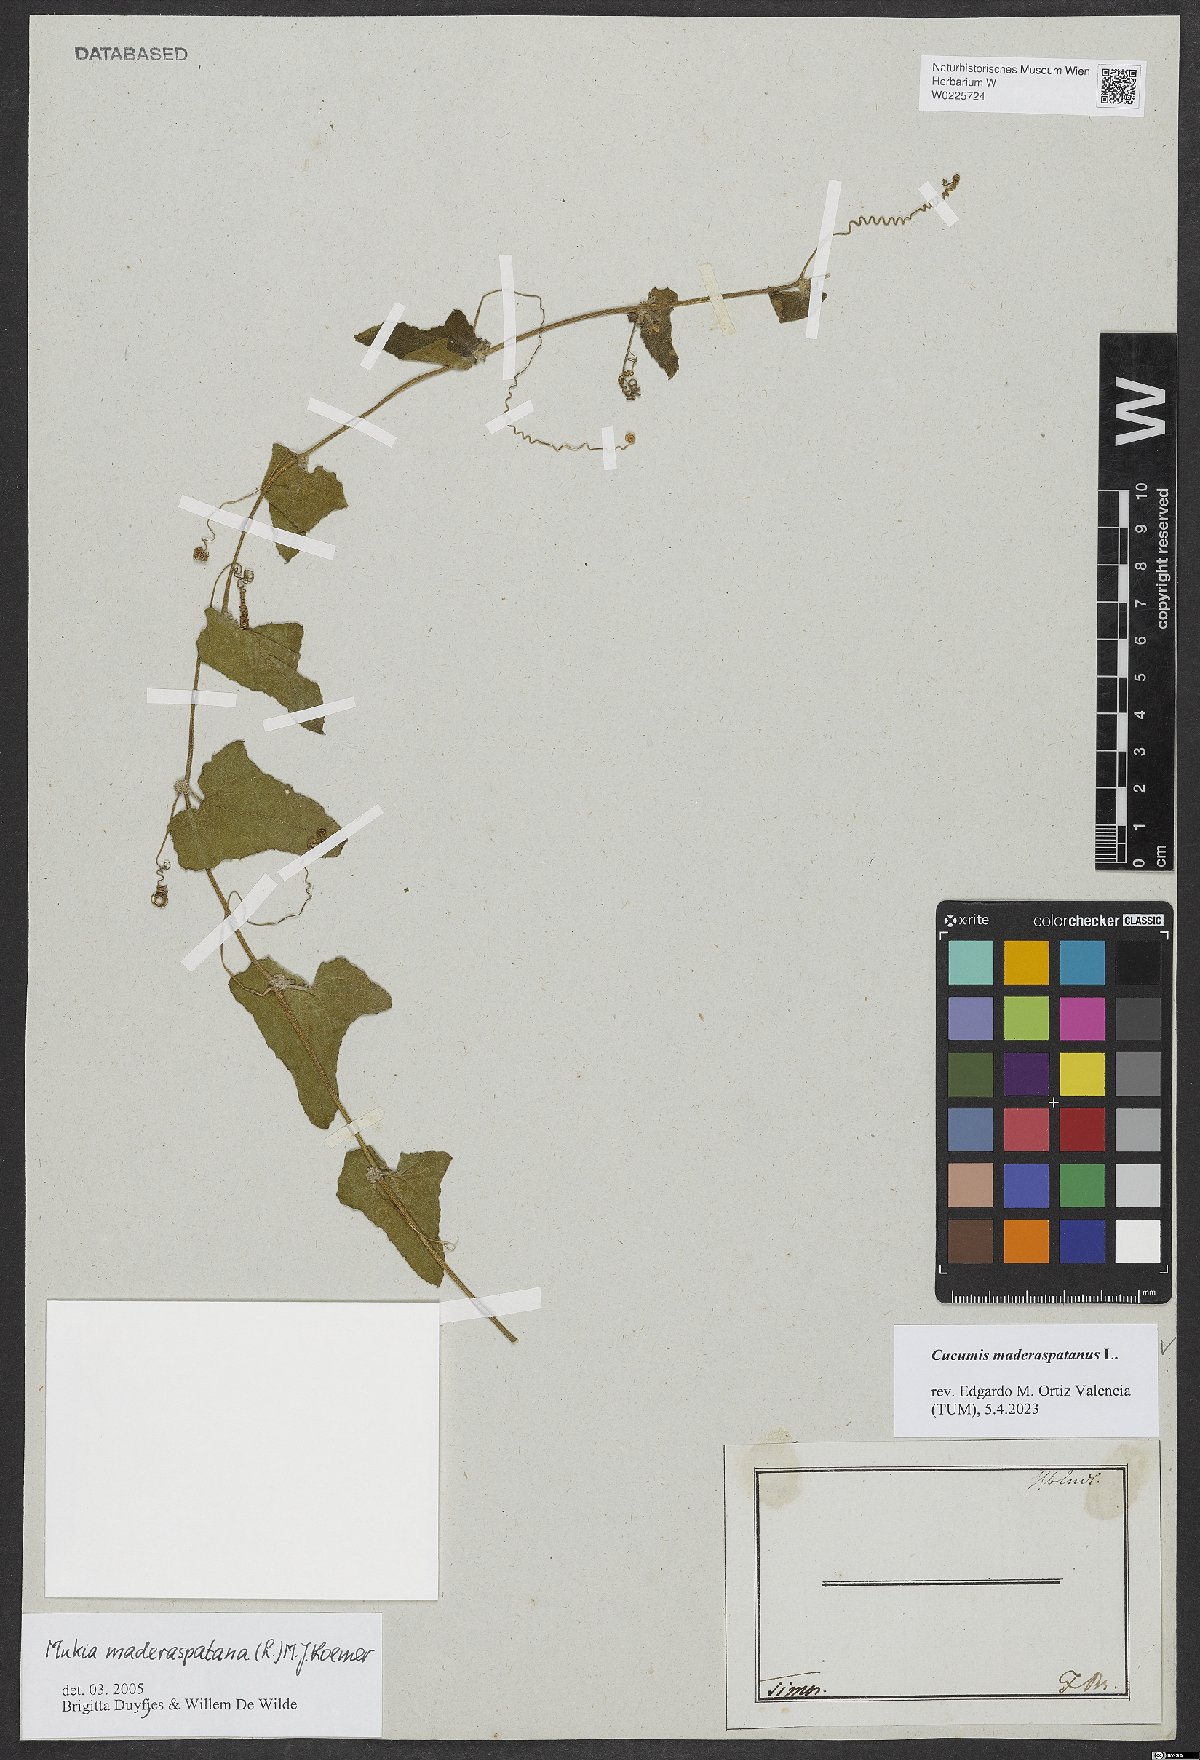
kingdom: Plantae
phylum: Tracheophyta
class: Magnoliopsida
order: Cucurbitales
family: Cucurbitaceae
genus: Cucumis
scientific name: Cucumis maderaspatanus
